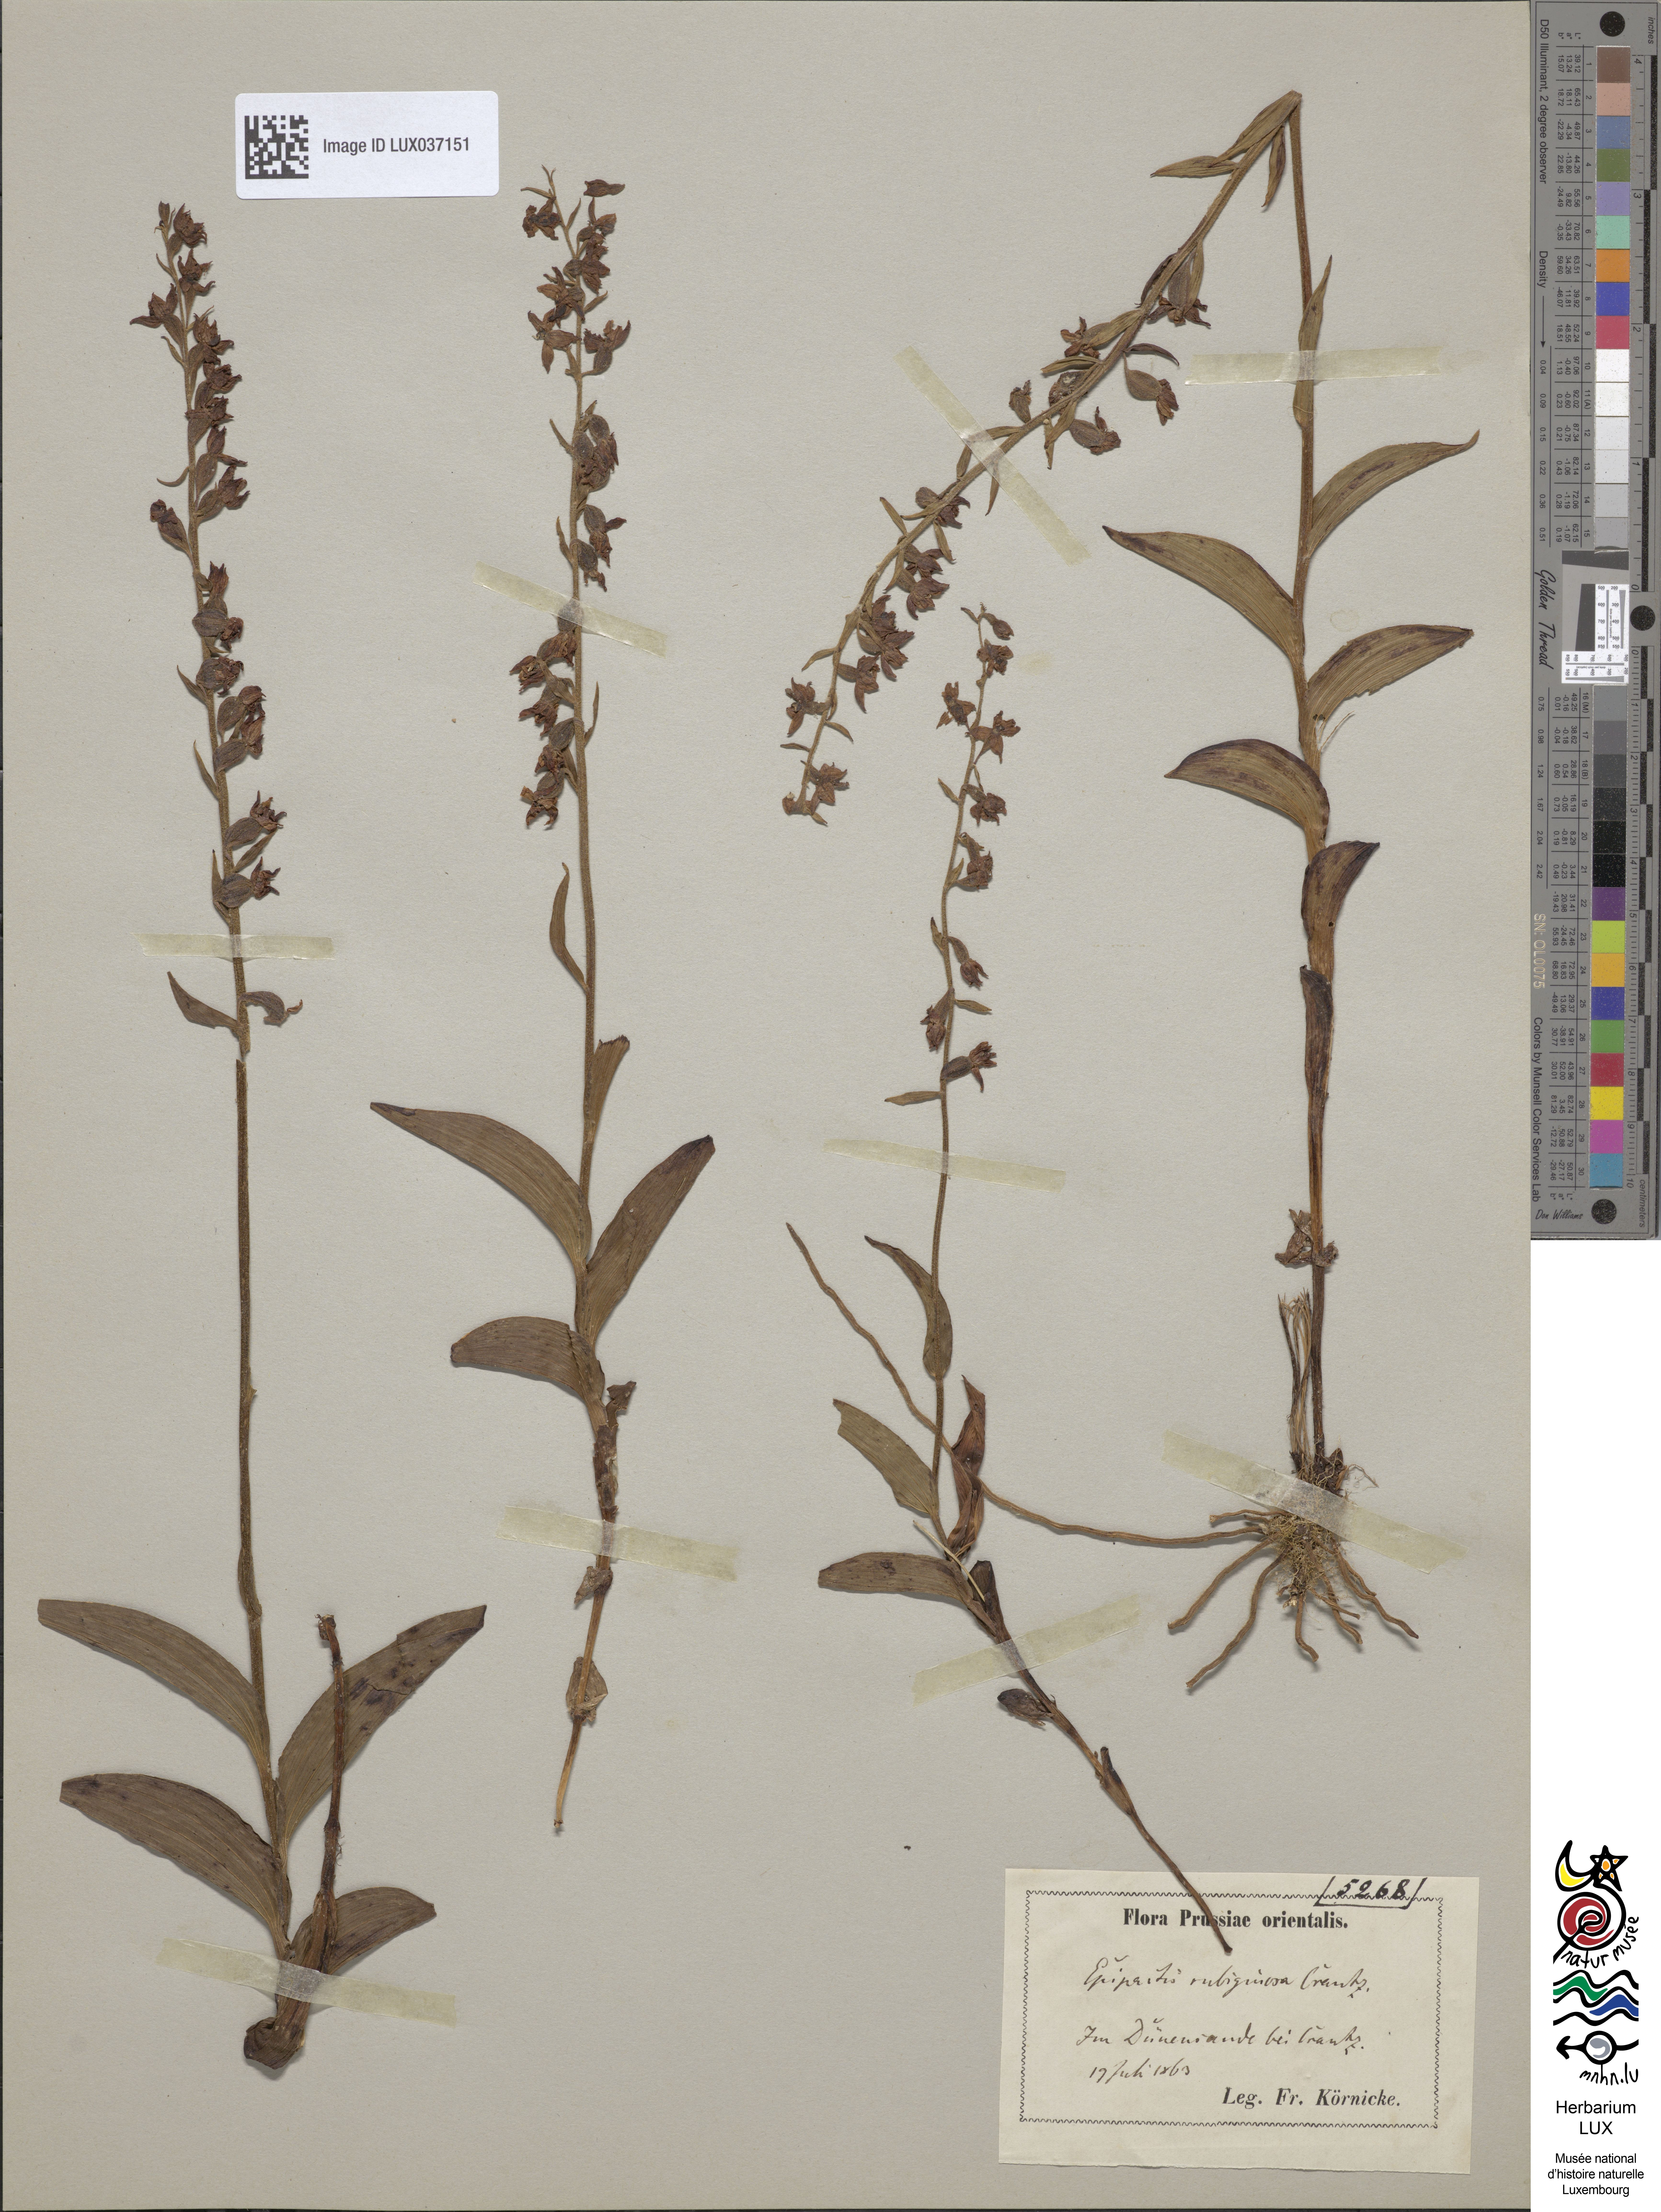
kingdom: Plantae
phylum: Tracheophyta
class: Liliopsida
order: Asparagales
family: Orchidaceae
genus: Epipactis
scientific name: Epipactis atrorubens
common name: Dark-red helleborine
